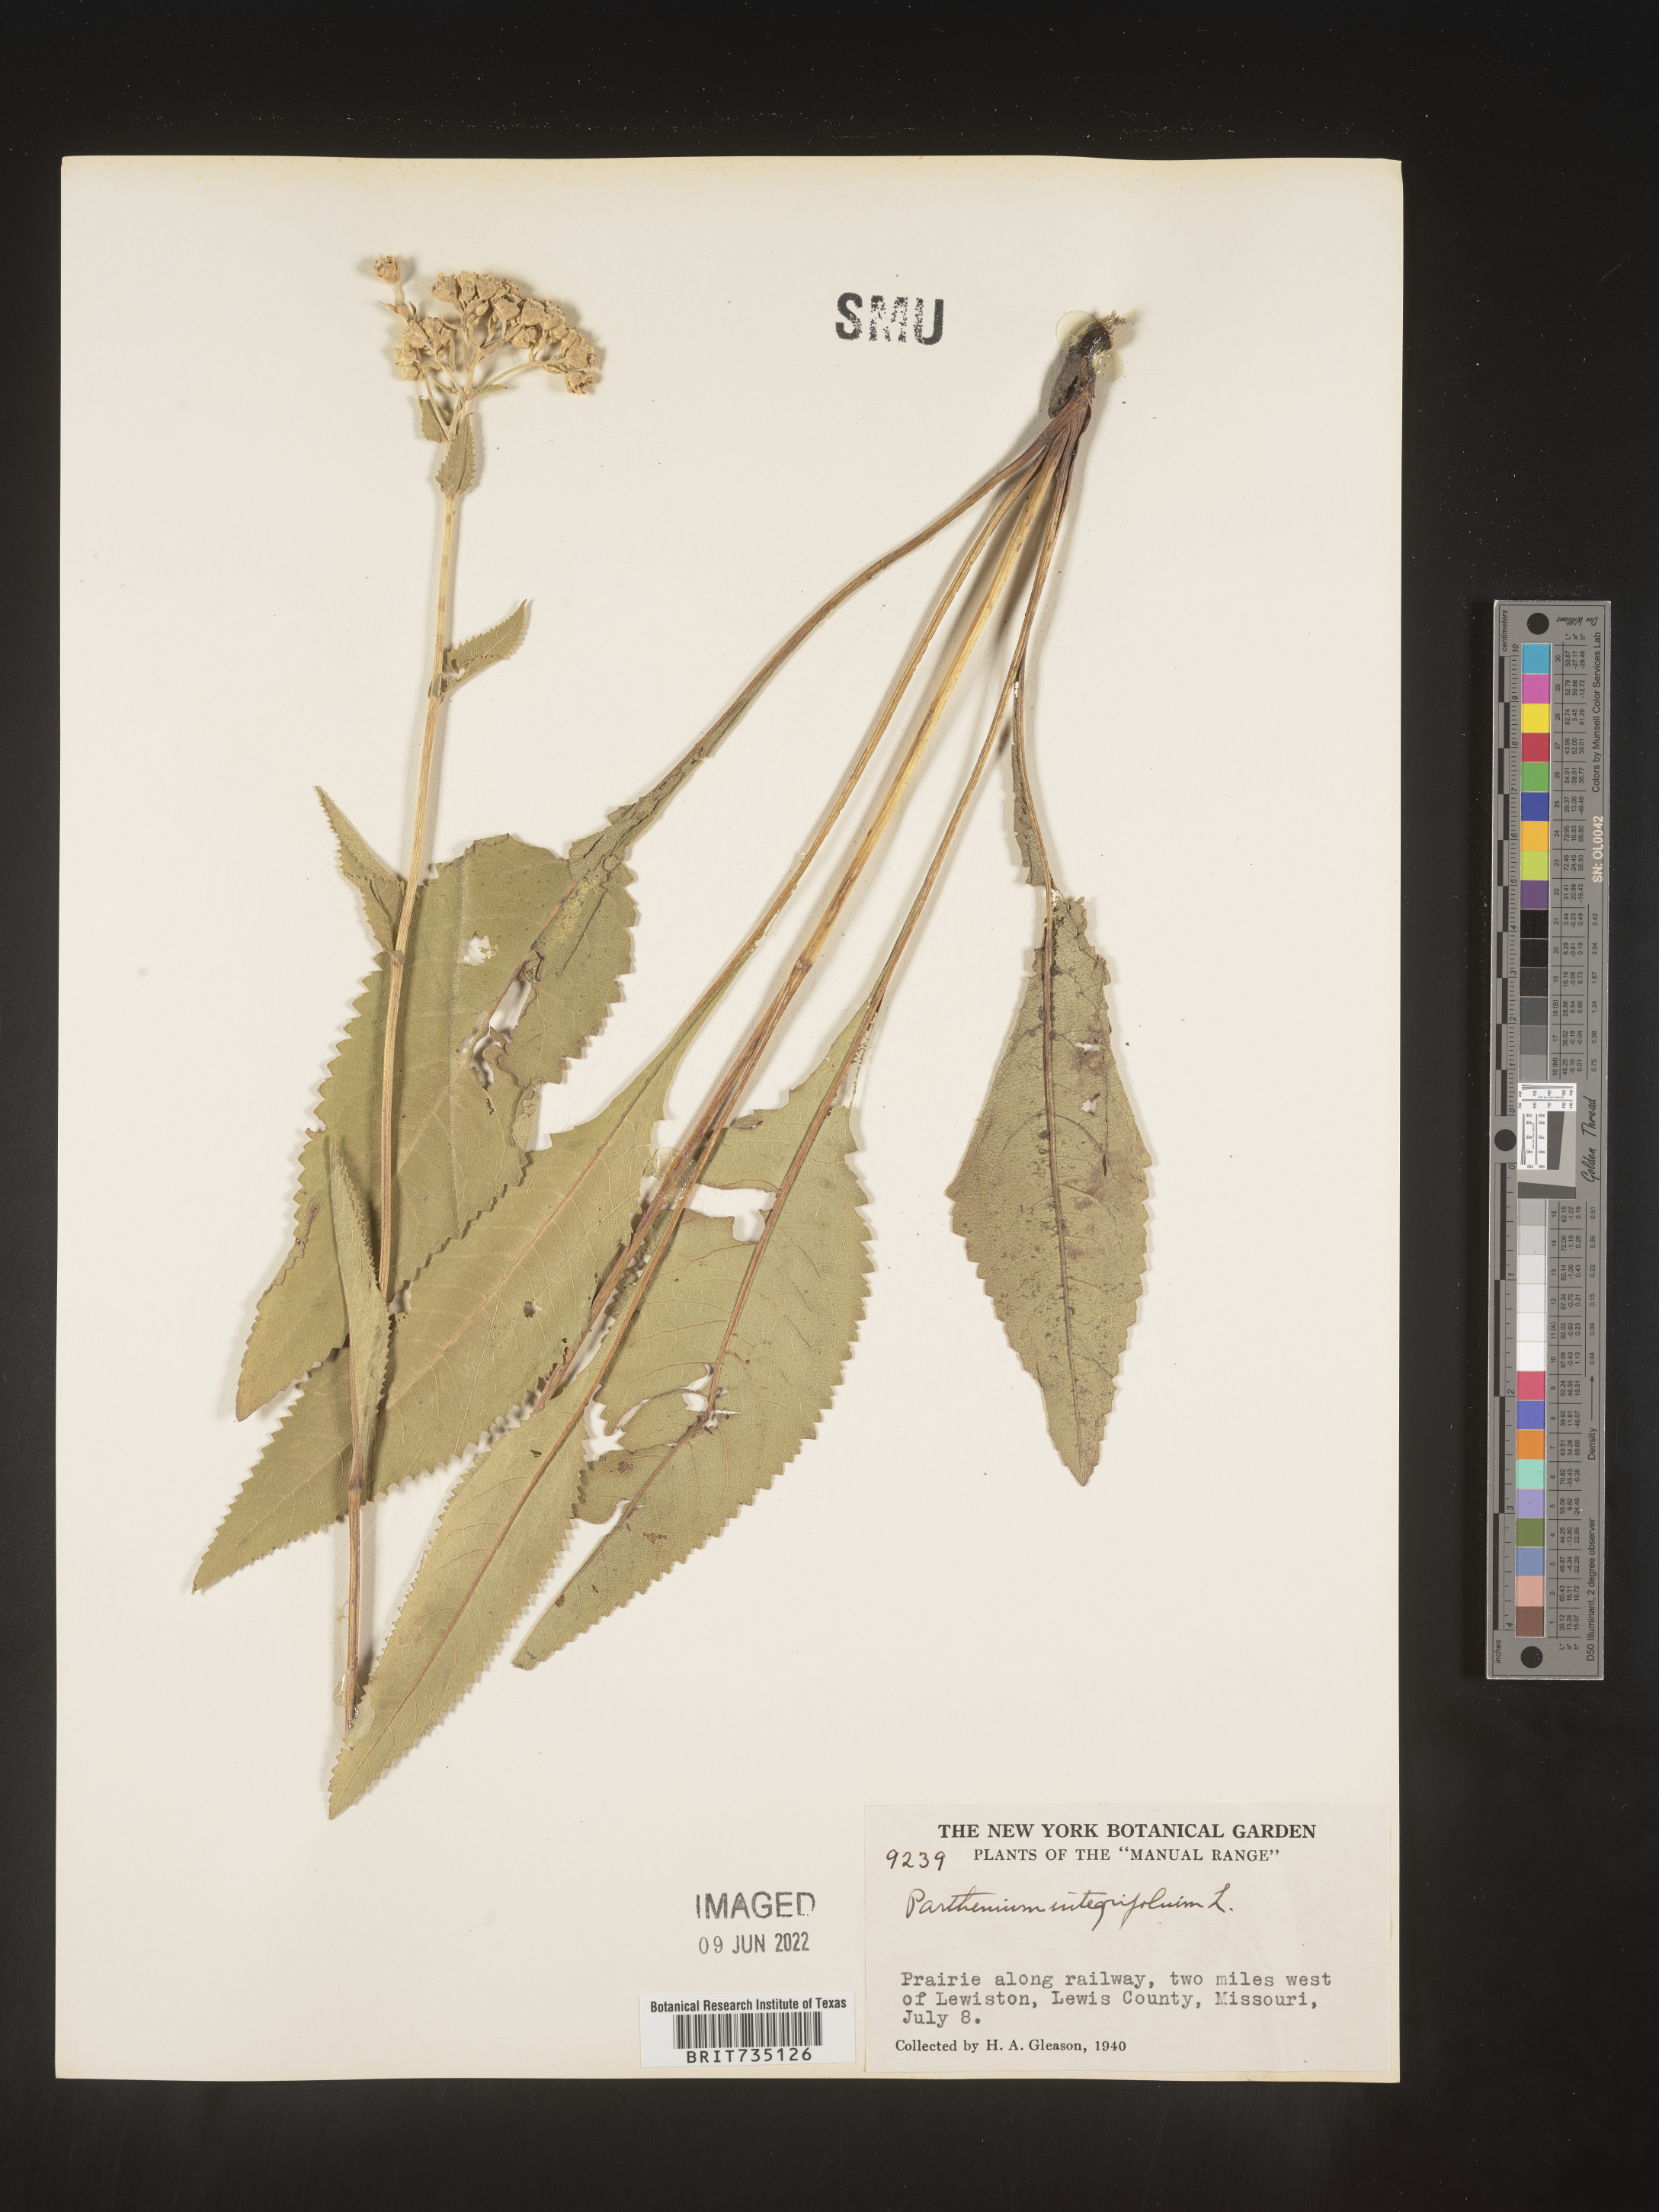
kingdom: Plantae
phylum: Tracheophyta
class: Magnoliopsida
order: Asterales
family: Asteraceae
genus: Parthenium
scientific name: Parthenium integrifolium
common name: American feverfew
